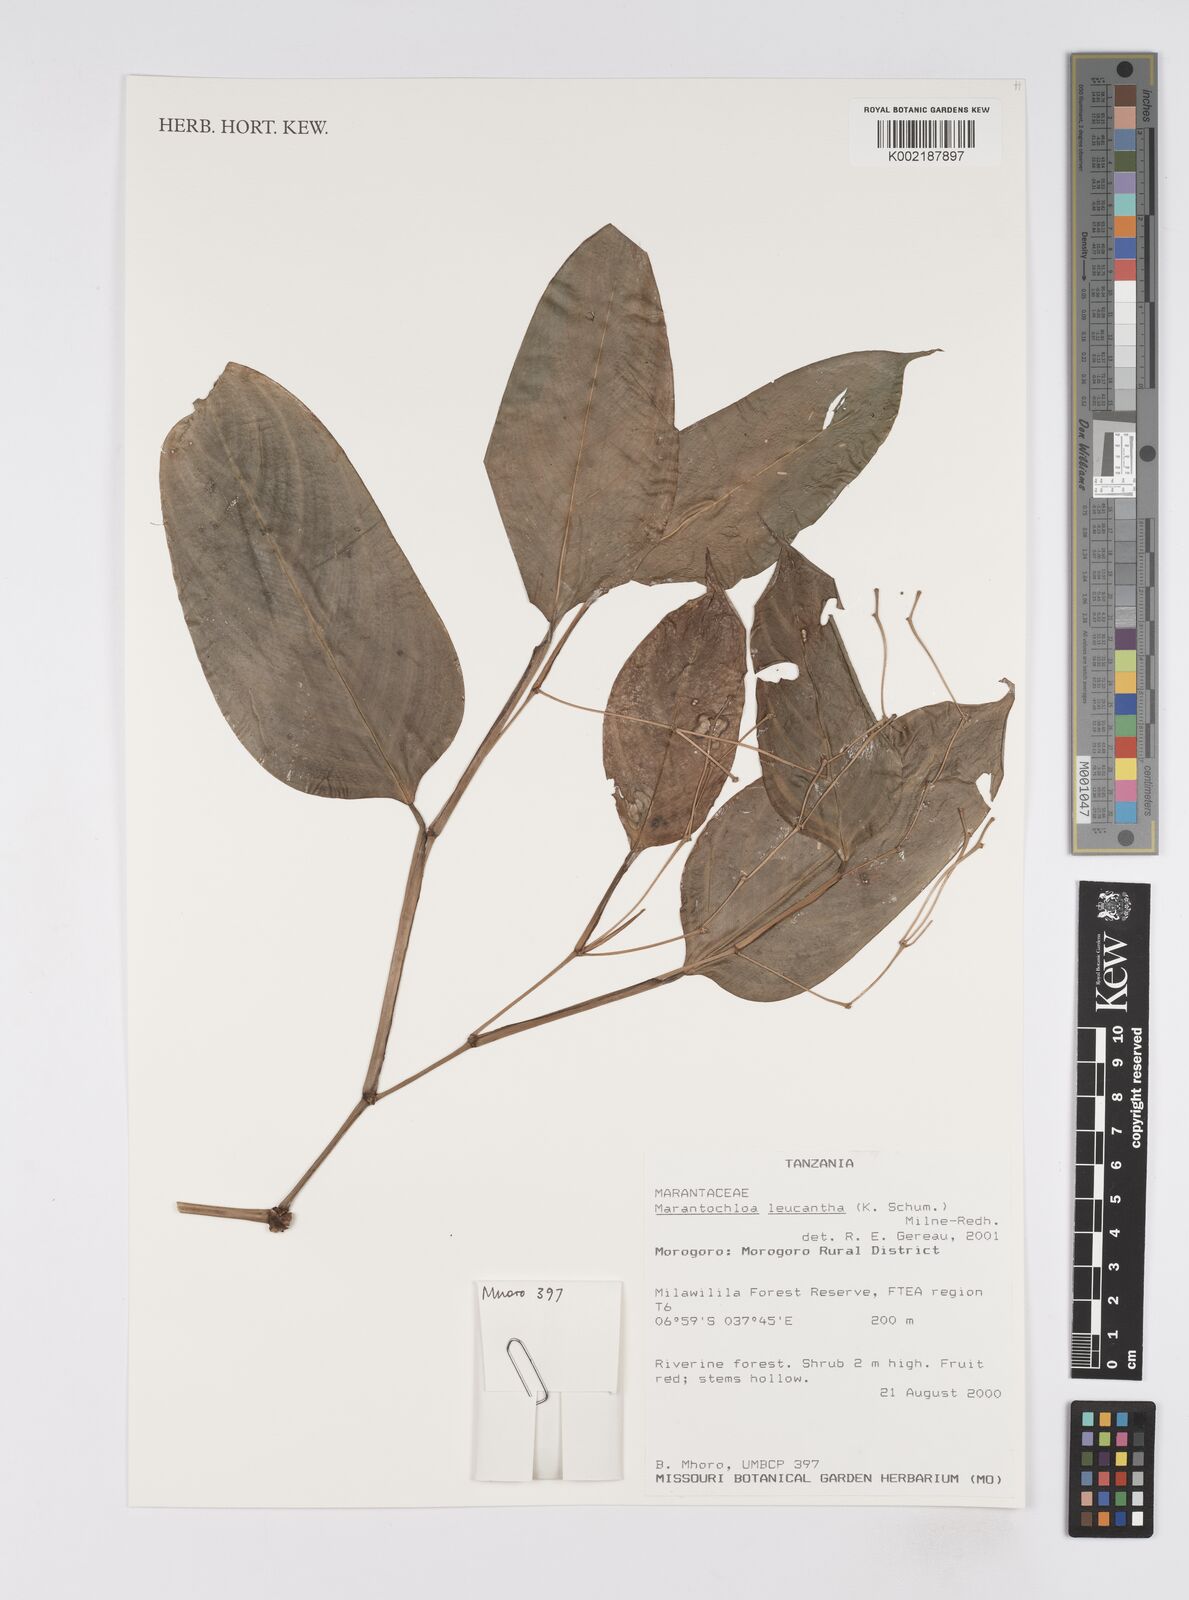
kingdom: Plantae
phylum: Tracheophyta
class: Liliopsida
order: Zingiberales
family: Marantaceae
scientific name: Marantaceae
